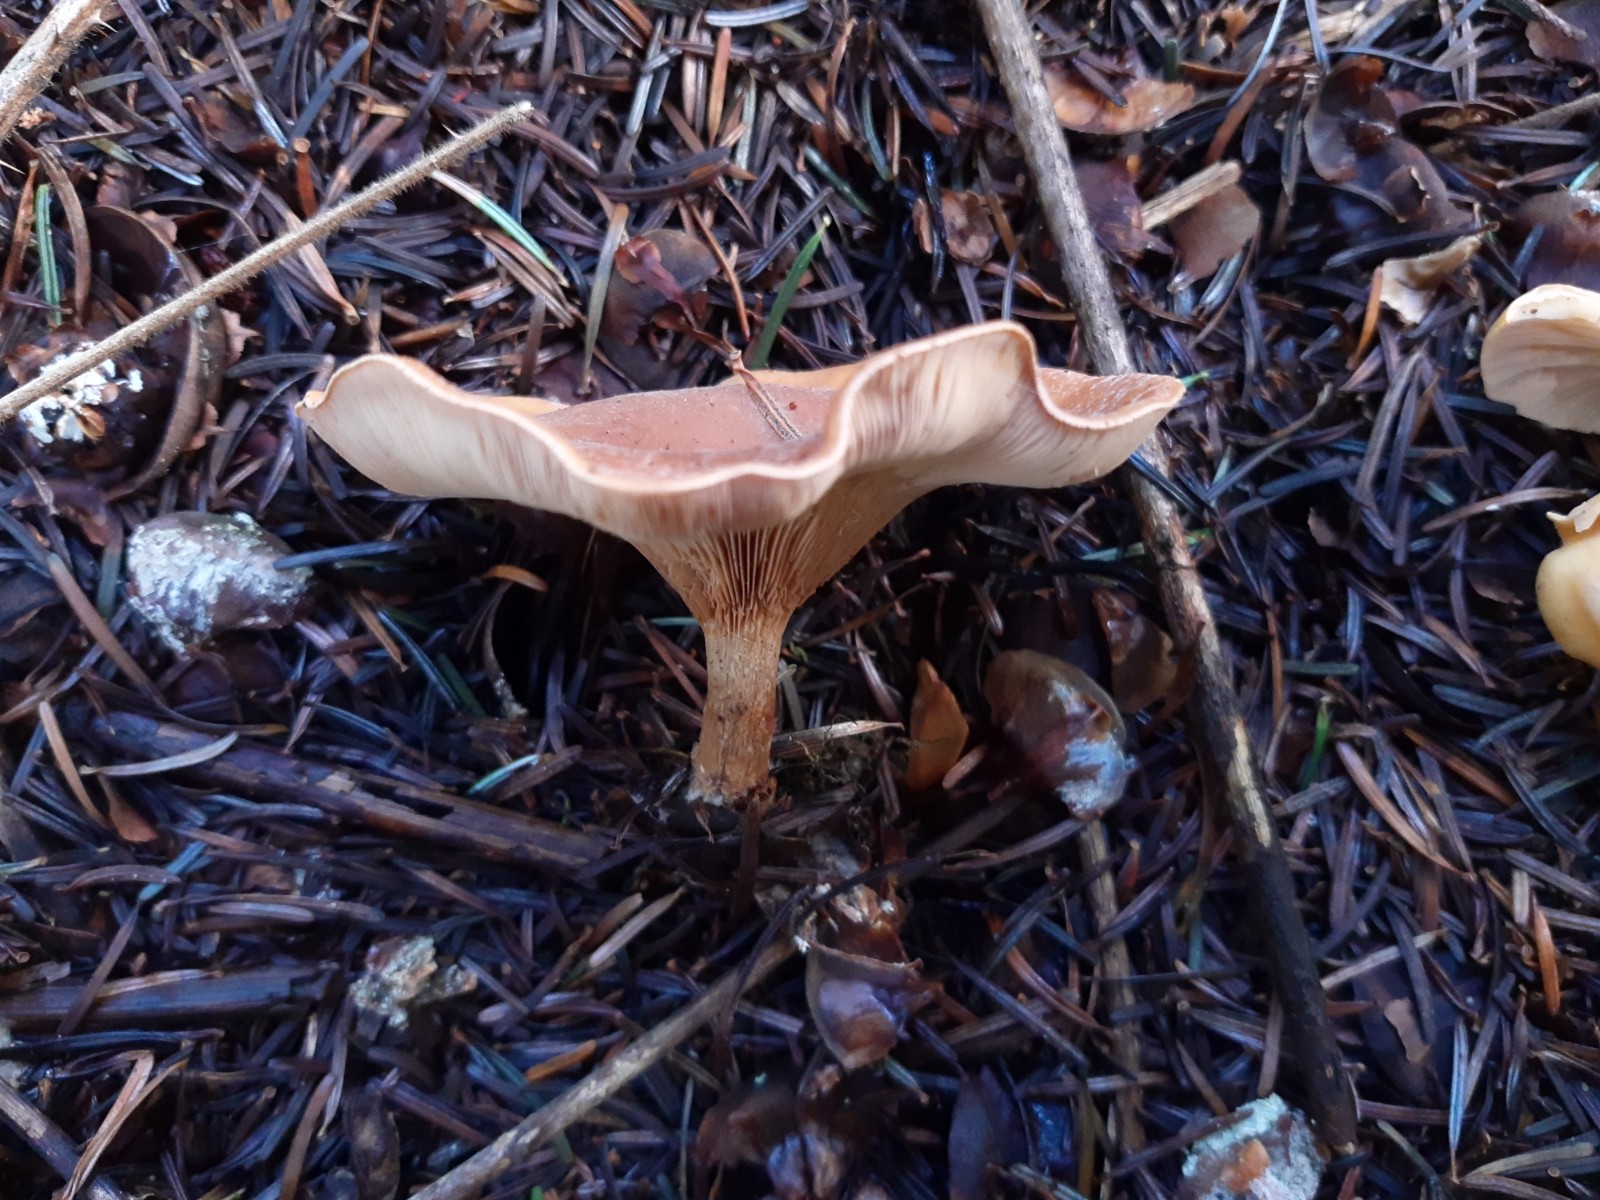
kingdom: Fungi
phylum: Basidiomycota
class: Agaricomycetes
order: Agaricales
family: Tricholomataceae
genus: Paralepista
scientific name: Paralepista flaccida
